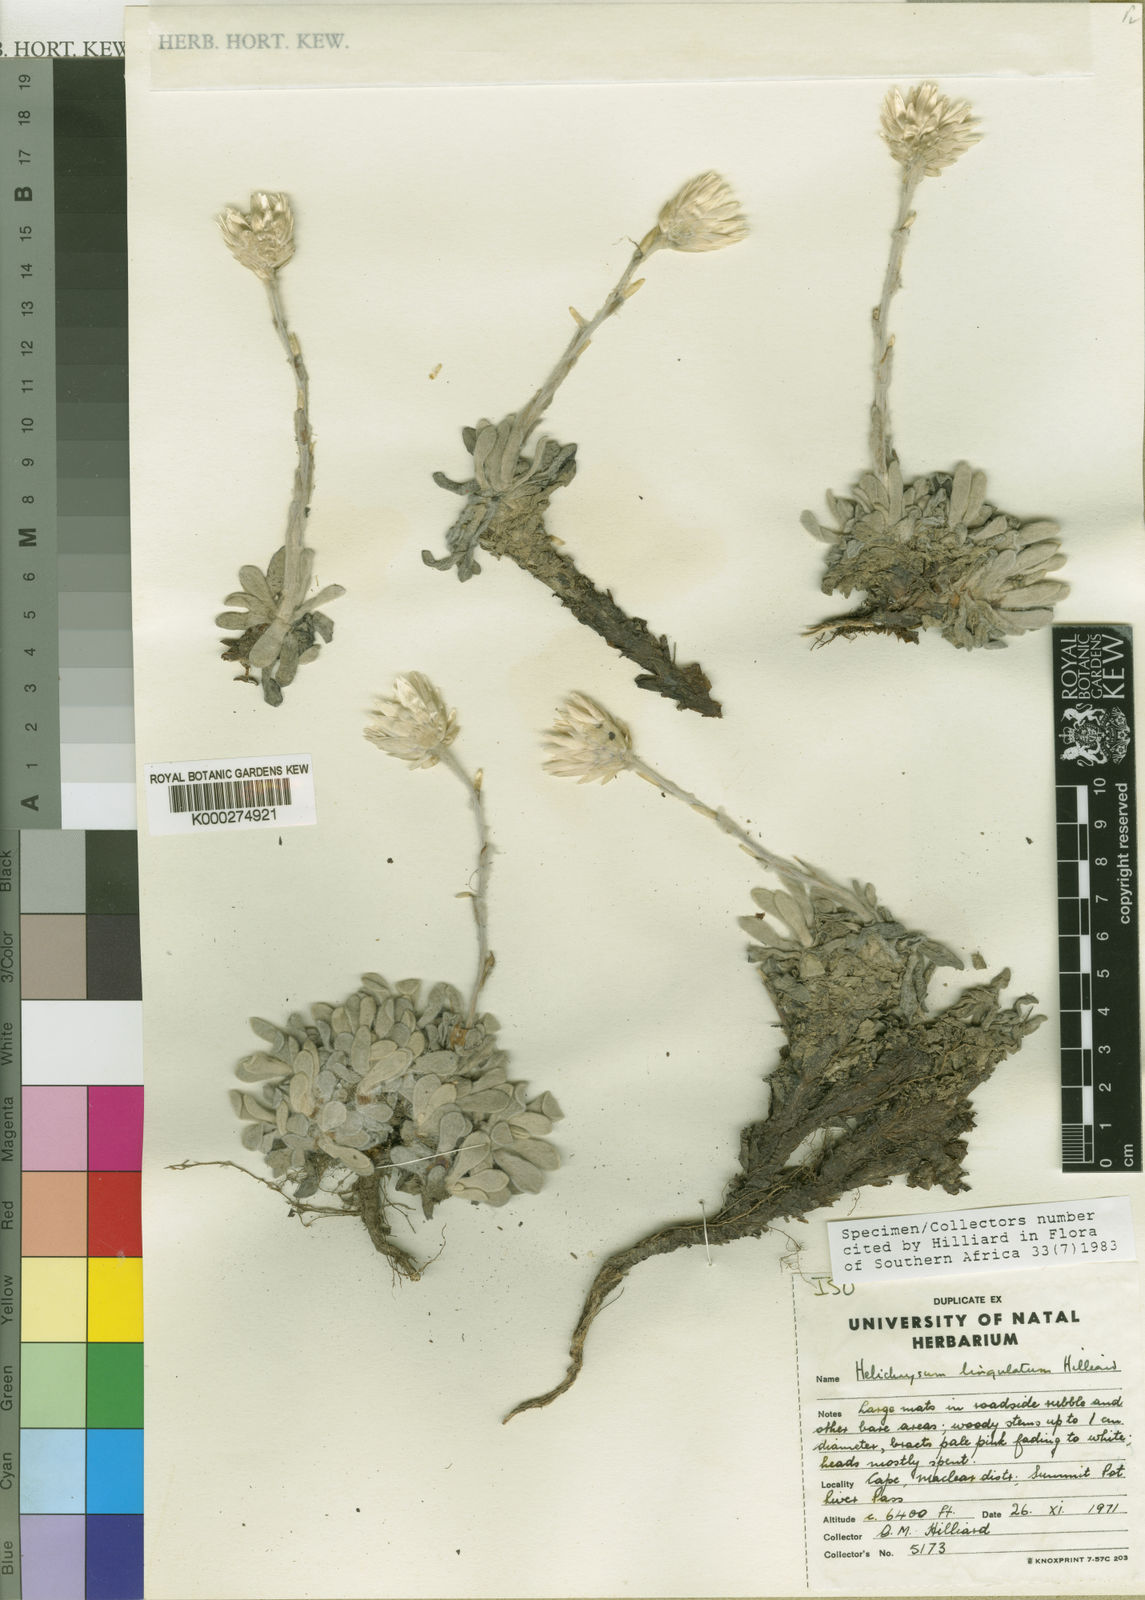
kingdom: Plantae
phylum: Tracheophyta
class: Magnoliopsida
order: Asterales
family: Asteraceae
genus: Helichrysum
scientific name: Helichrysum lingulatum
